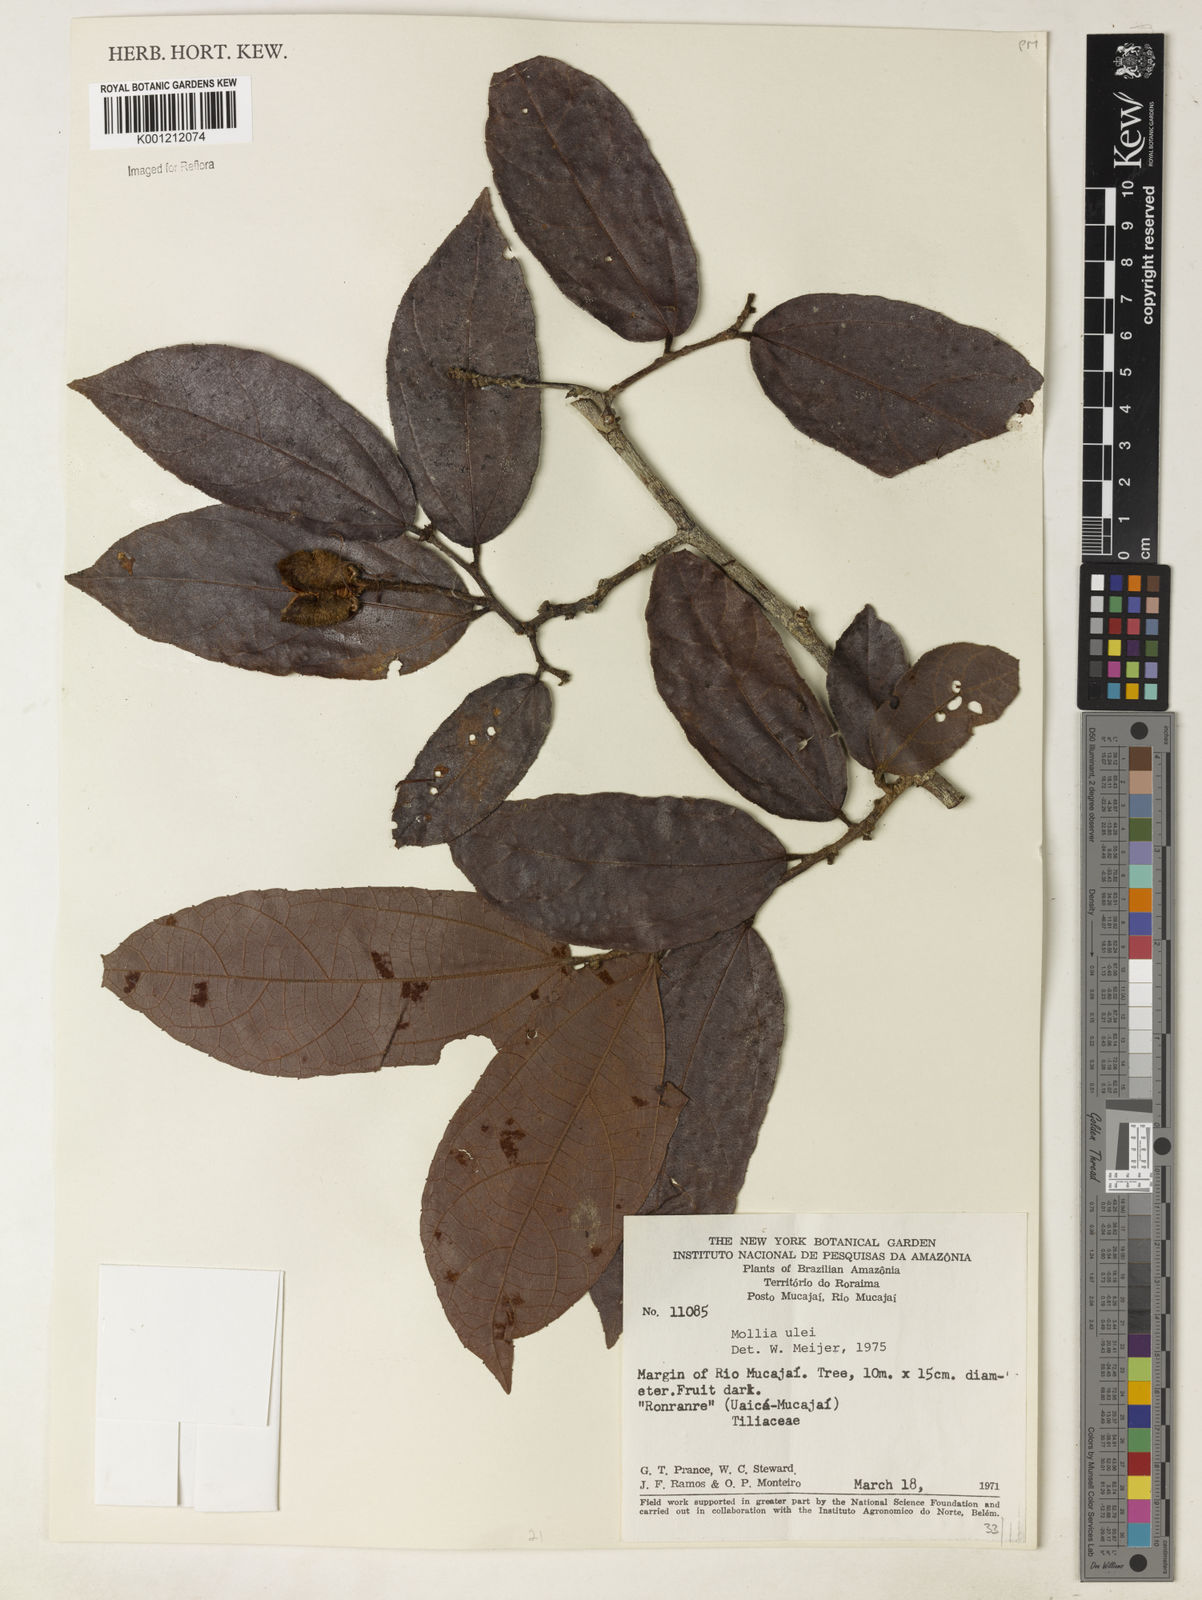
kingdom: Plantae
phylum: Tracheophyta
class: Magnoliopsida
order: Malvales
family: Malvaceae
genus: Mollia
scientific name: Mollia ulei
